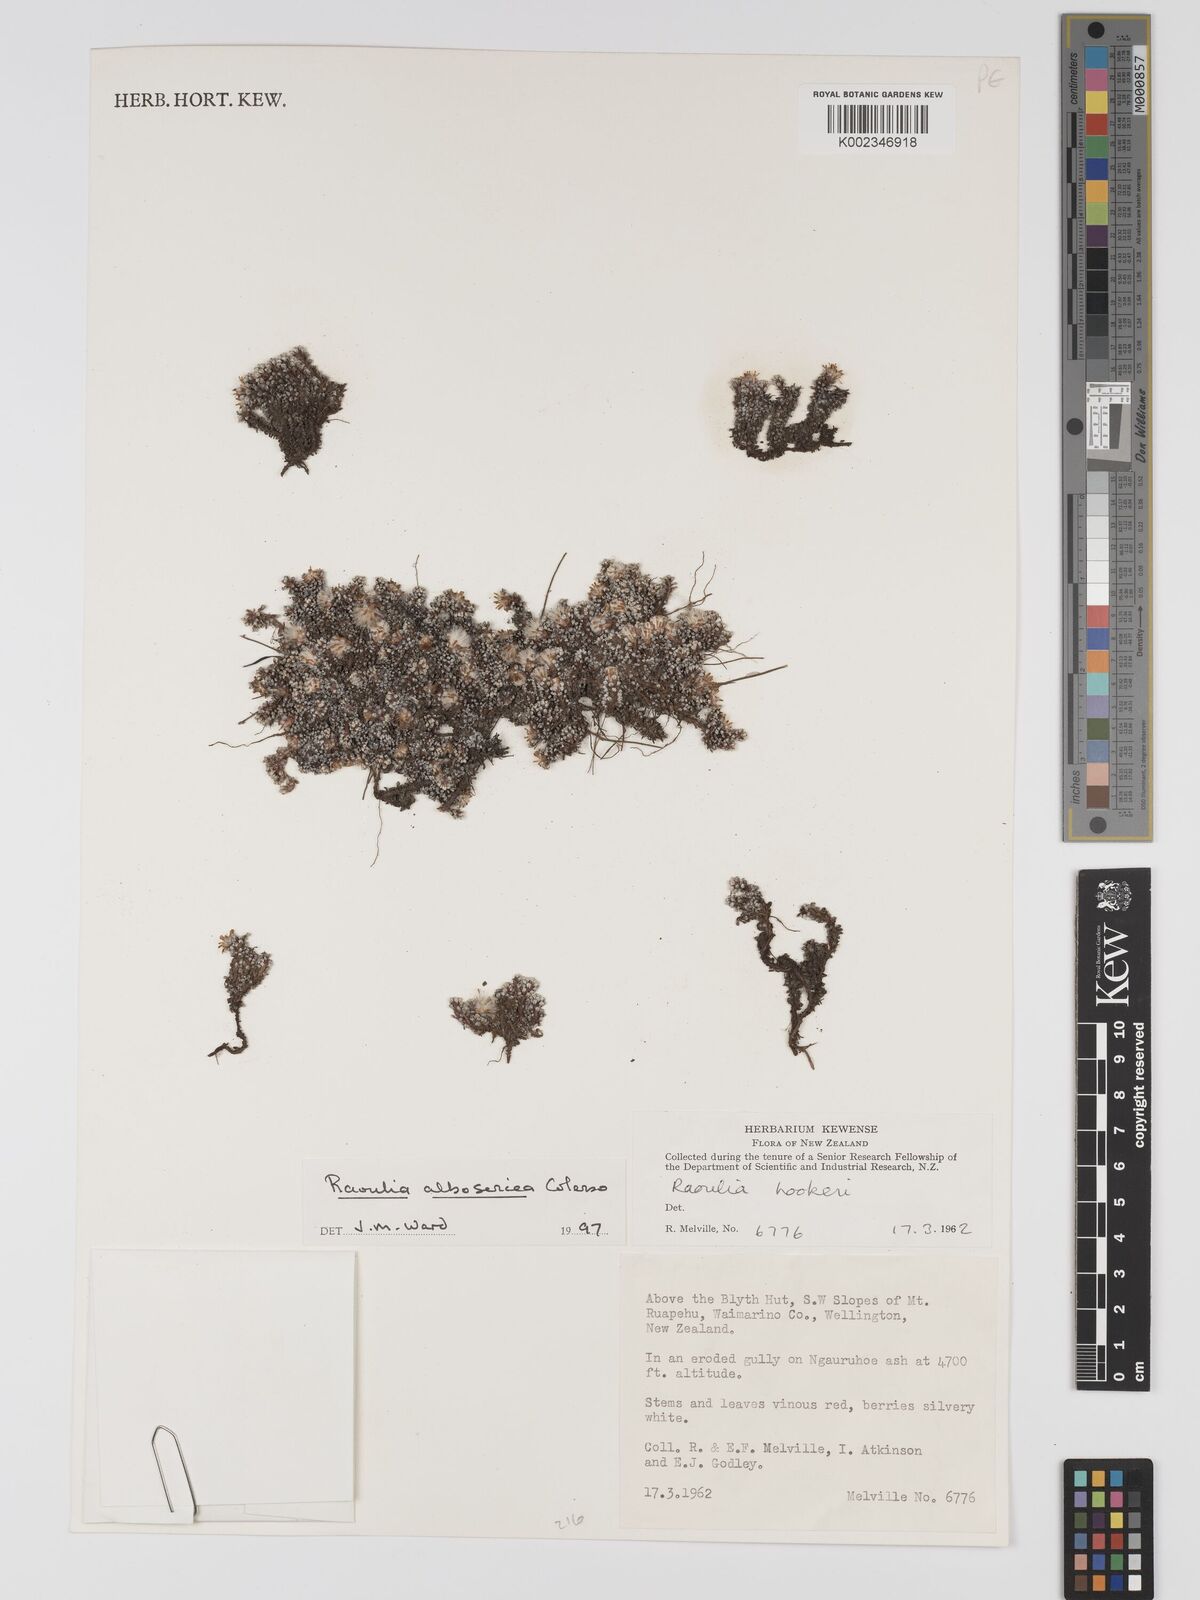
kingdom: Plantae
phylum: Tracheophyta
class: Magnoliopsida
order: Asterales
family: Asteraceae
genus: Raoulia
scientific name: Raoulia albosericea
